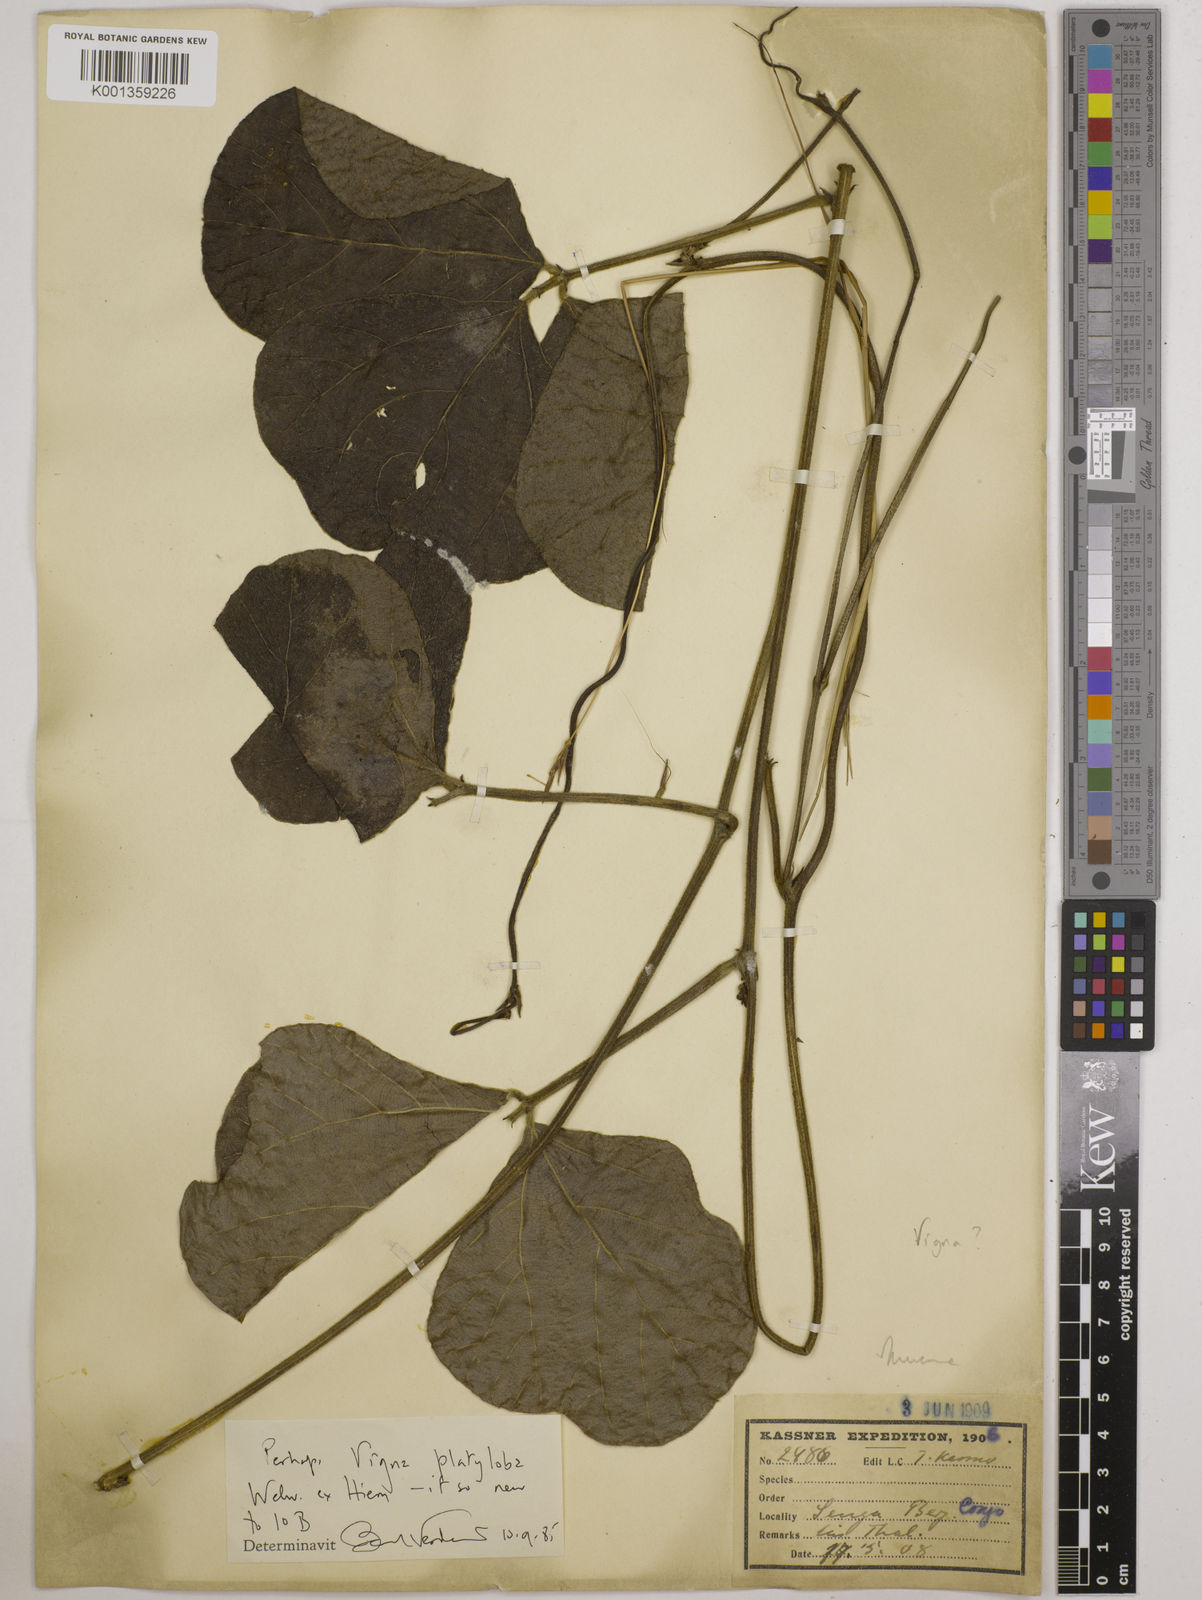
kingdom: Plantae
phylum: Tracheophyta
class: Magnoliopsida
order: Fabales
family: Fabaceae
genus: Vigna
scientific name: Vigna platyloba
